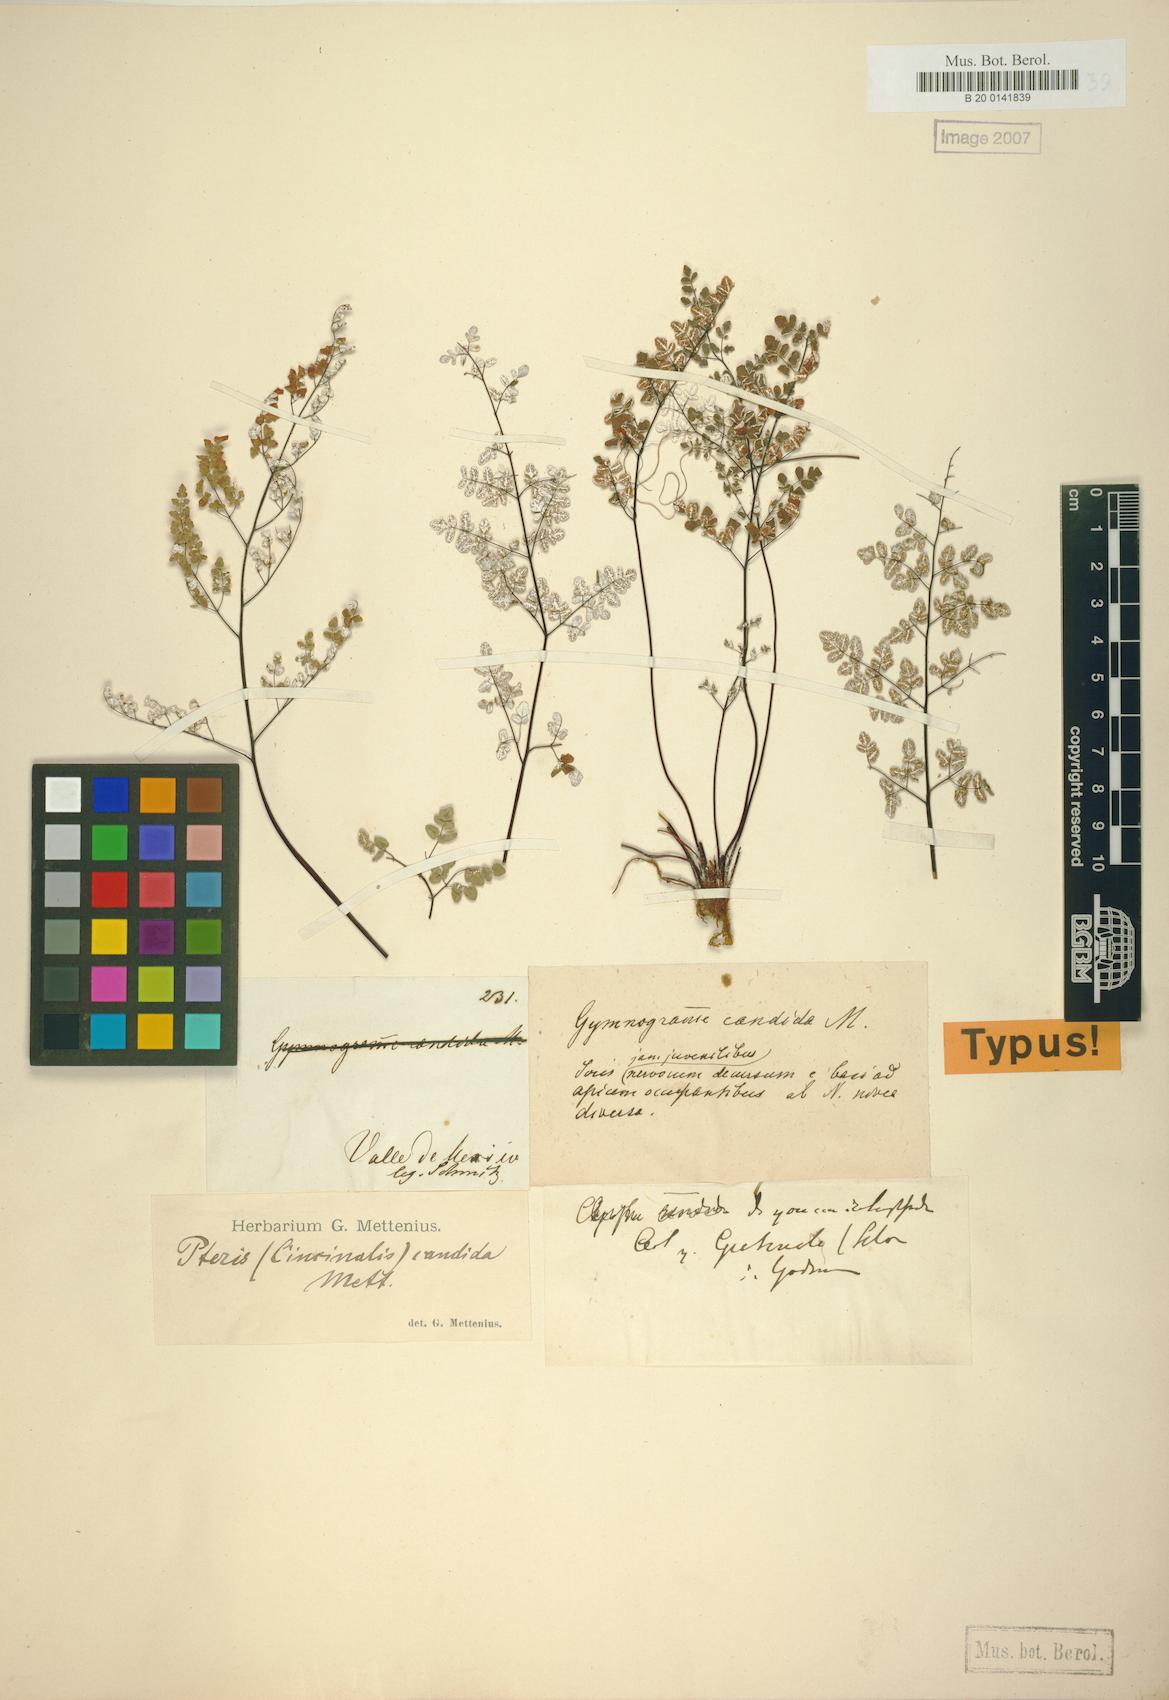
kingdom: Plantae
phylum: Tracheophyta
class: Polypodiopsida
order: Polypodiales
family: Pteridaceae
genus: Argyrochosma
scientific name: Argyrochosma incana
